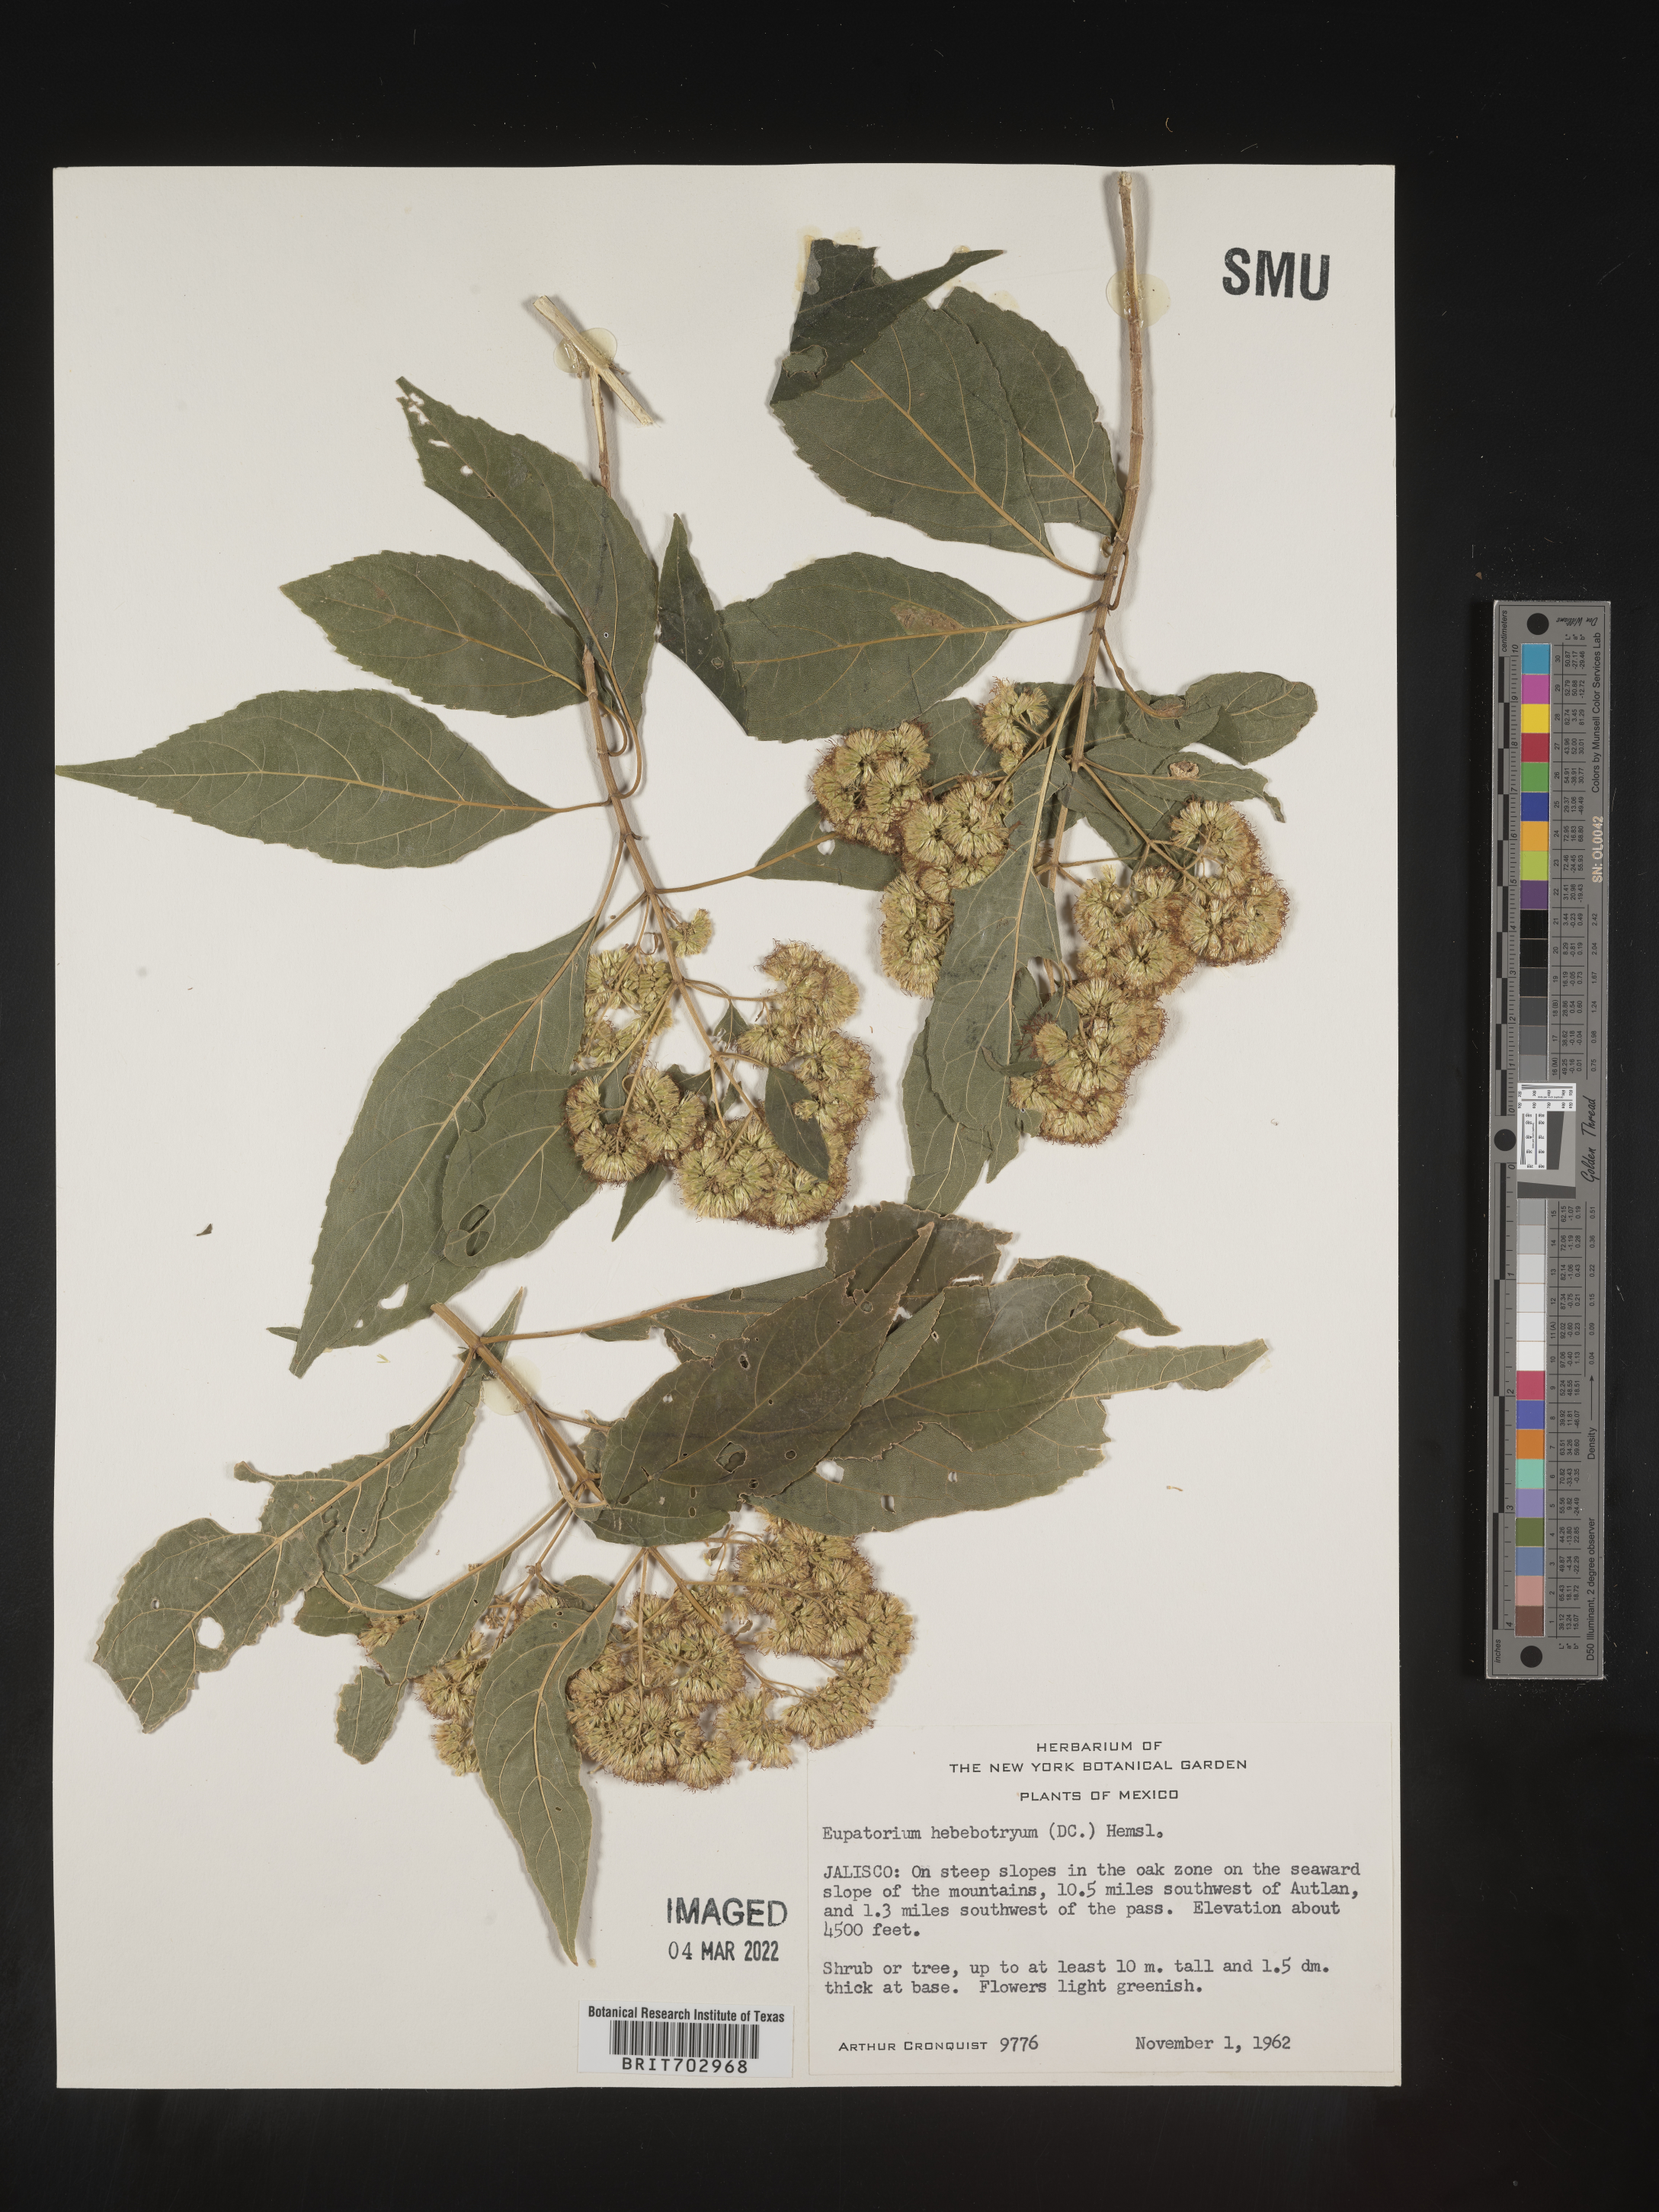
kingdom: Plantae
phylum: Tracheophyta
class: Magnoliopsida
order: Asterales
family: Asteraceae
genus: Eupatorium
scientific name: Eupatorium
